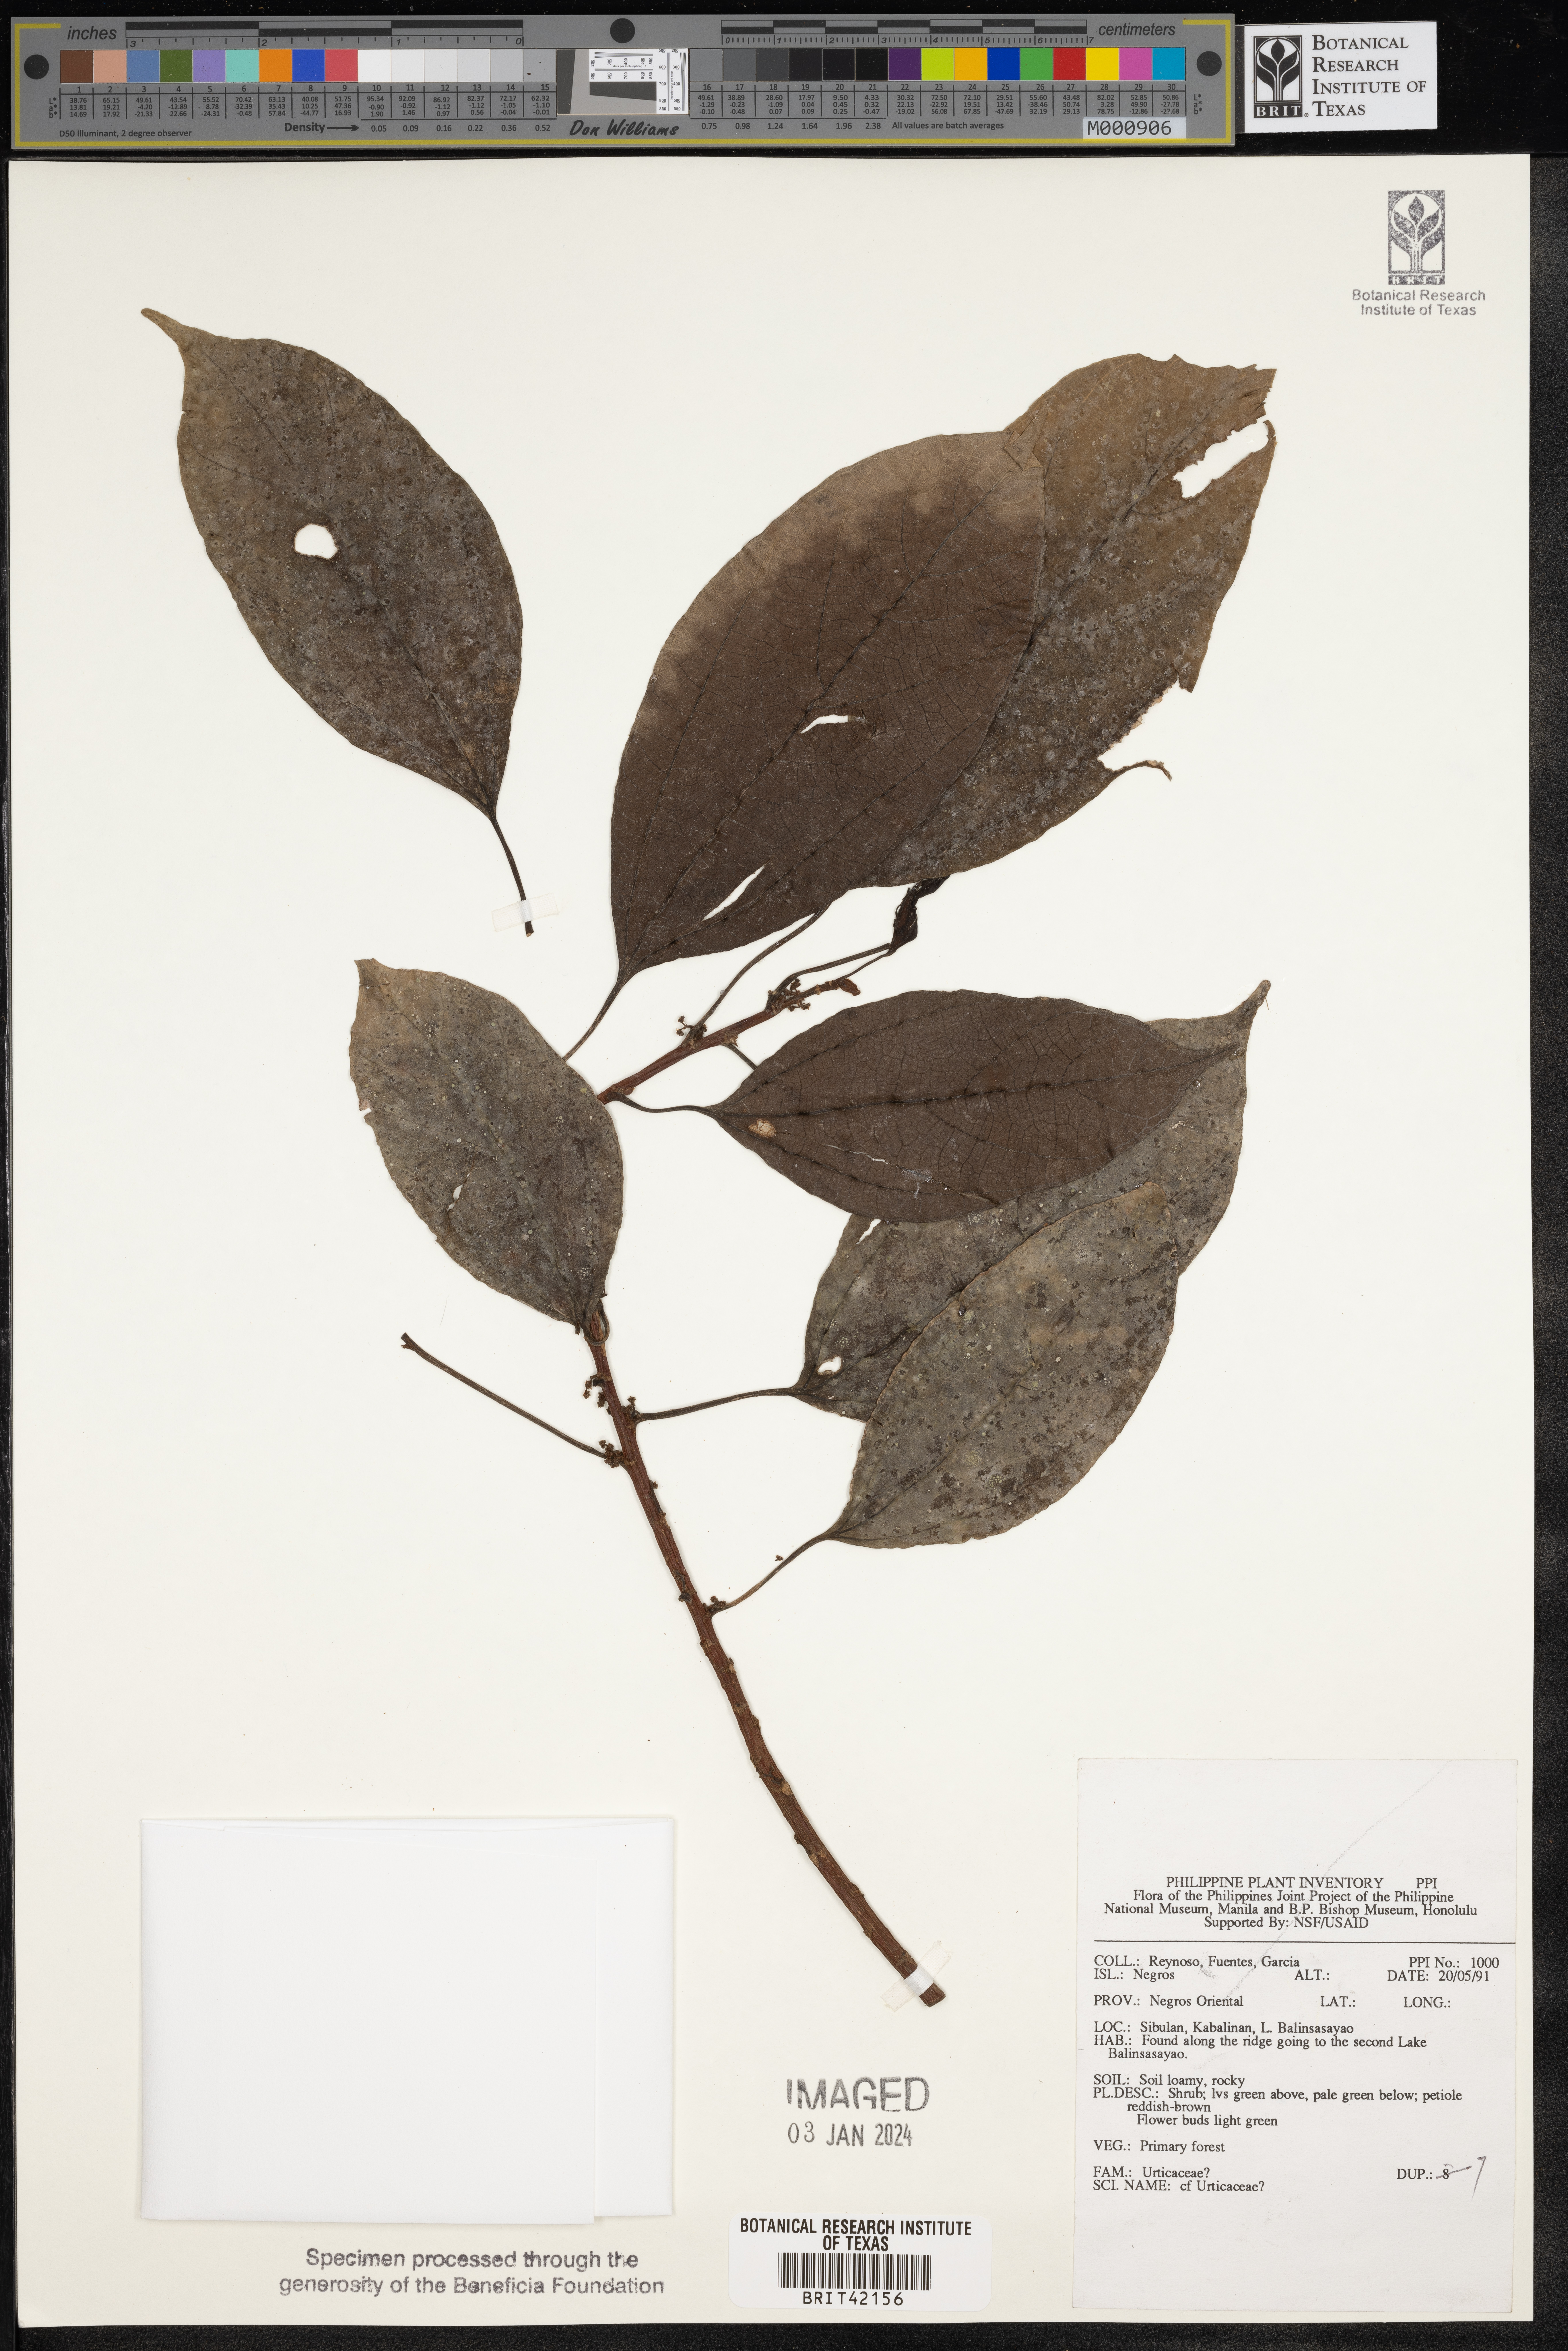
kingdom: Plantae
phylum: Tracheophyta
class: Magnoliopsida
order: Rosales
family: Urticaceae
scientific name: Urticaceae
